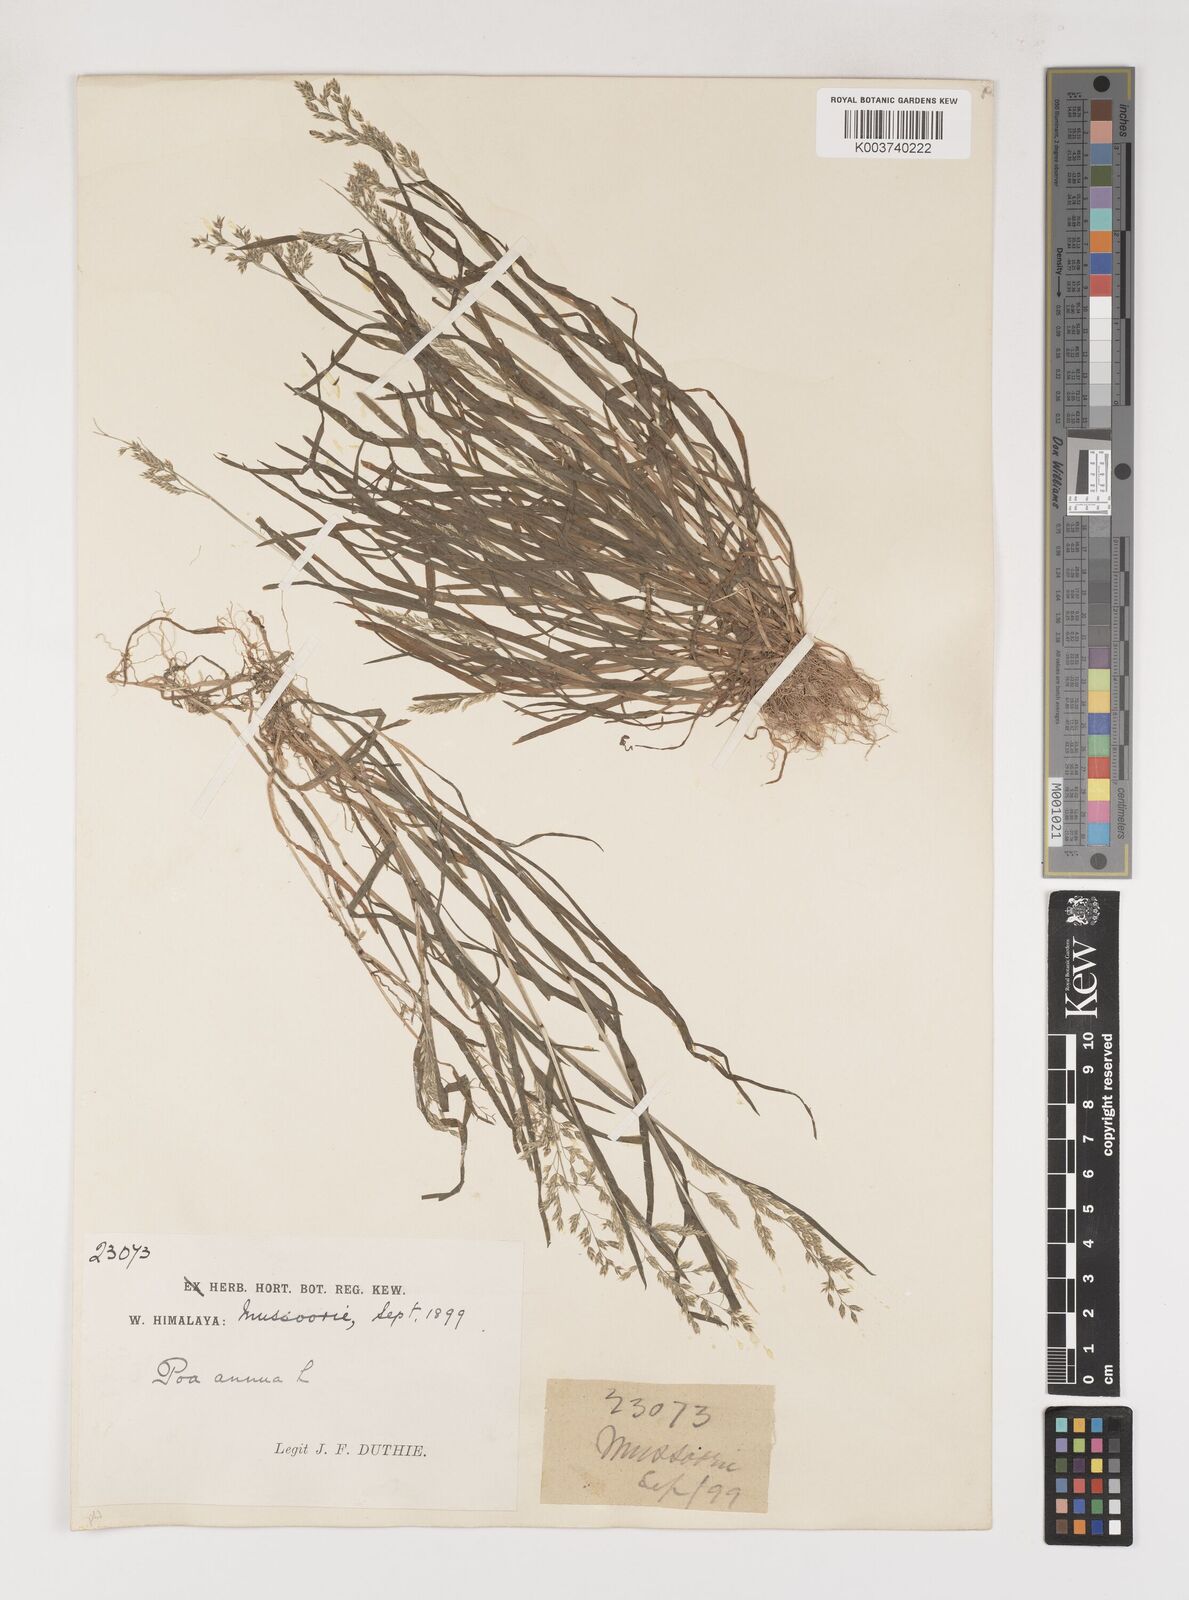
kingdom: Plantae
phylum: Tracheophyta
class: Liliopsida
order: Poales
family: Poaceae
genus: Poa
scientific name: Poa annua
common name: Annual bluegrass
